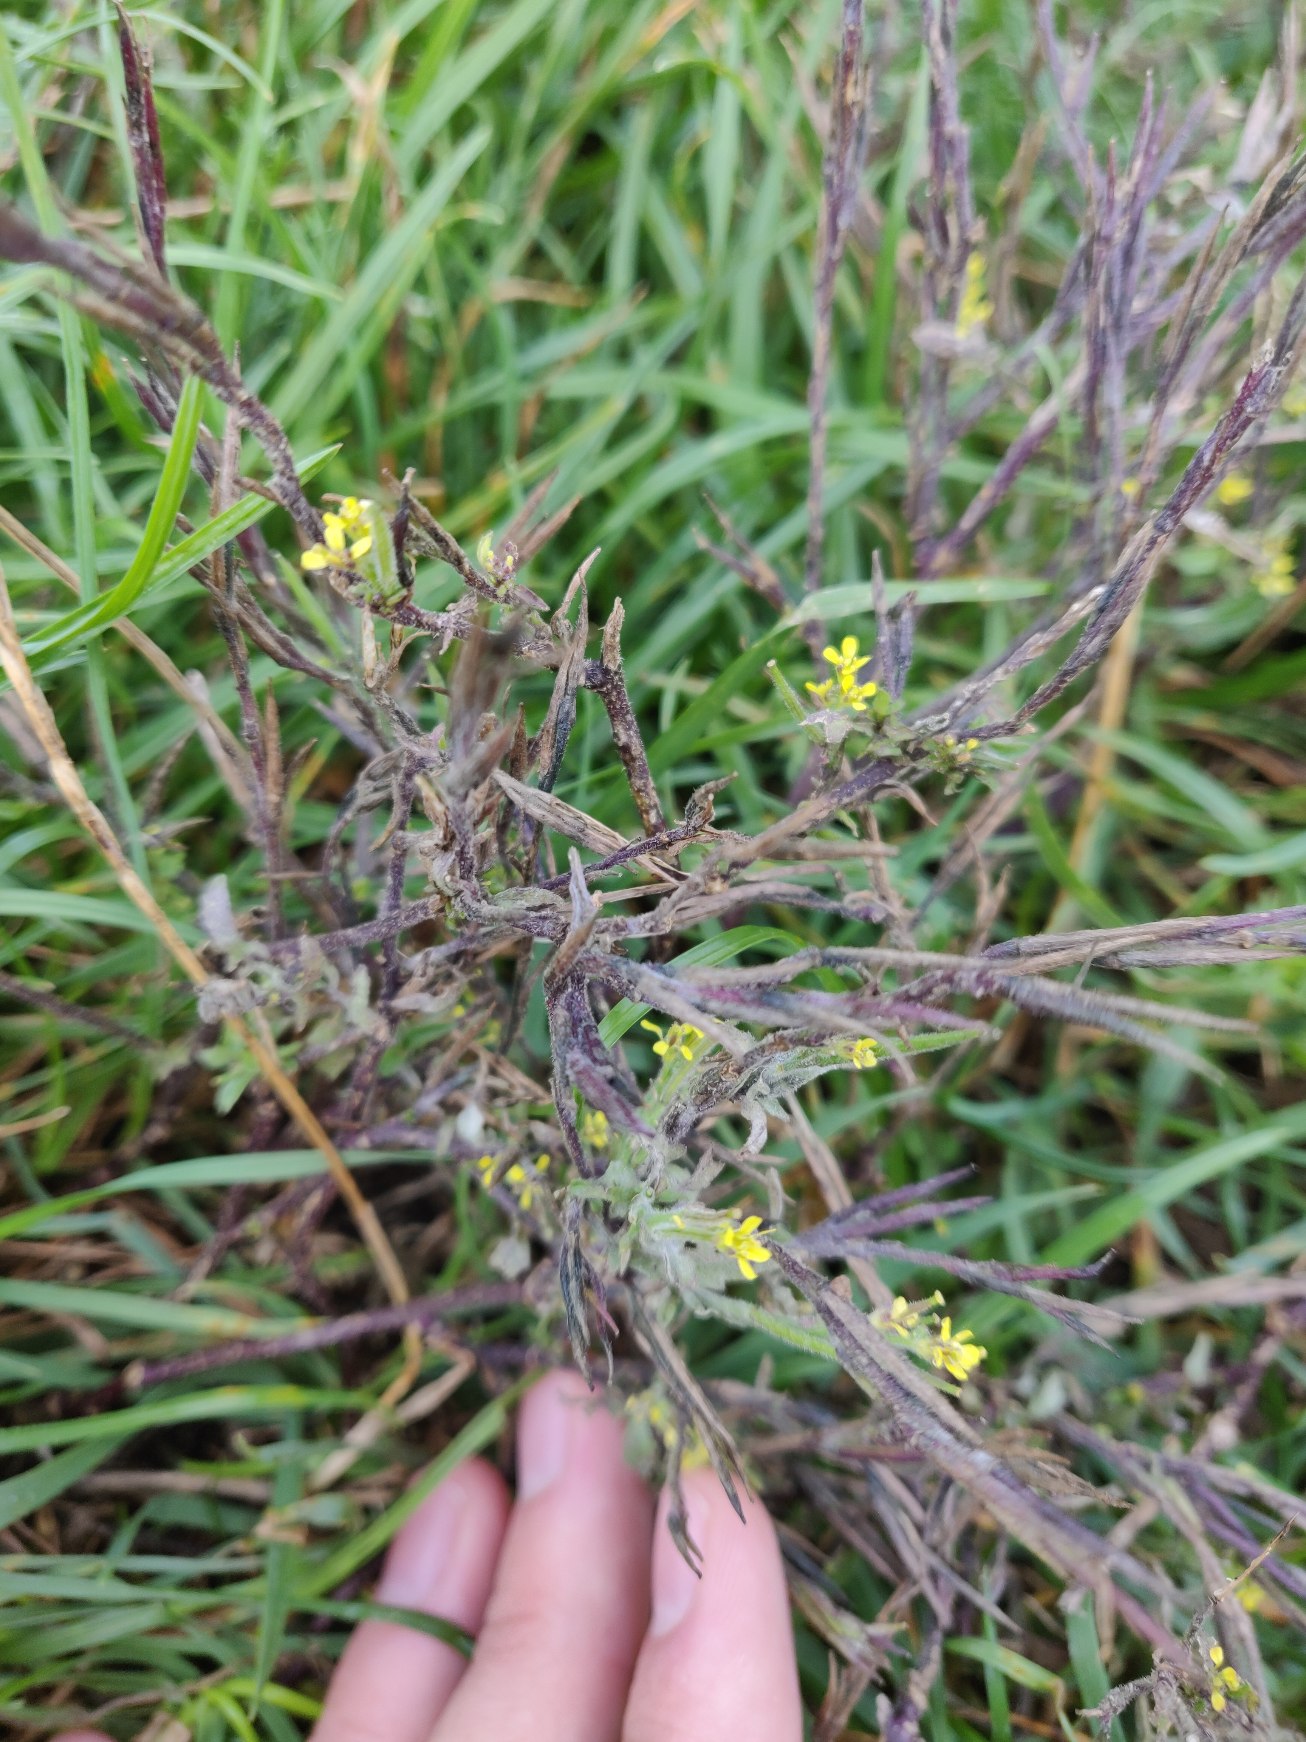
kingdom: Plantae
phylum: Tracheophyta
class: Magnoliopsida
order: Brassicales
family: Brassicaceae
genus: Sisymbrium
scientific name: Sisymbrium officinale
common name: Rank vejsennep
